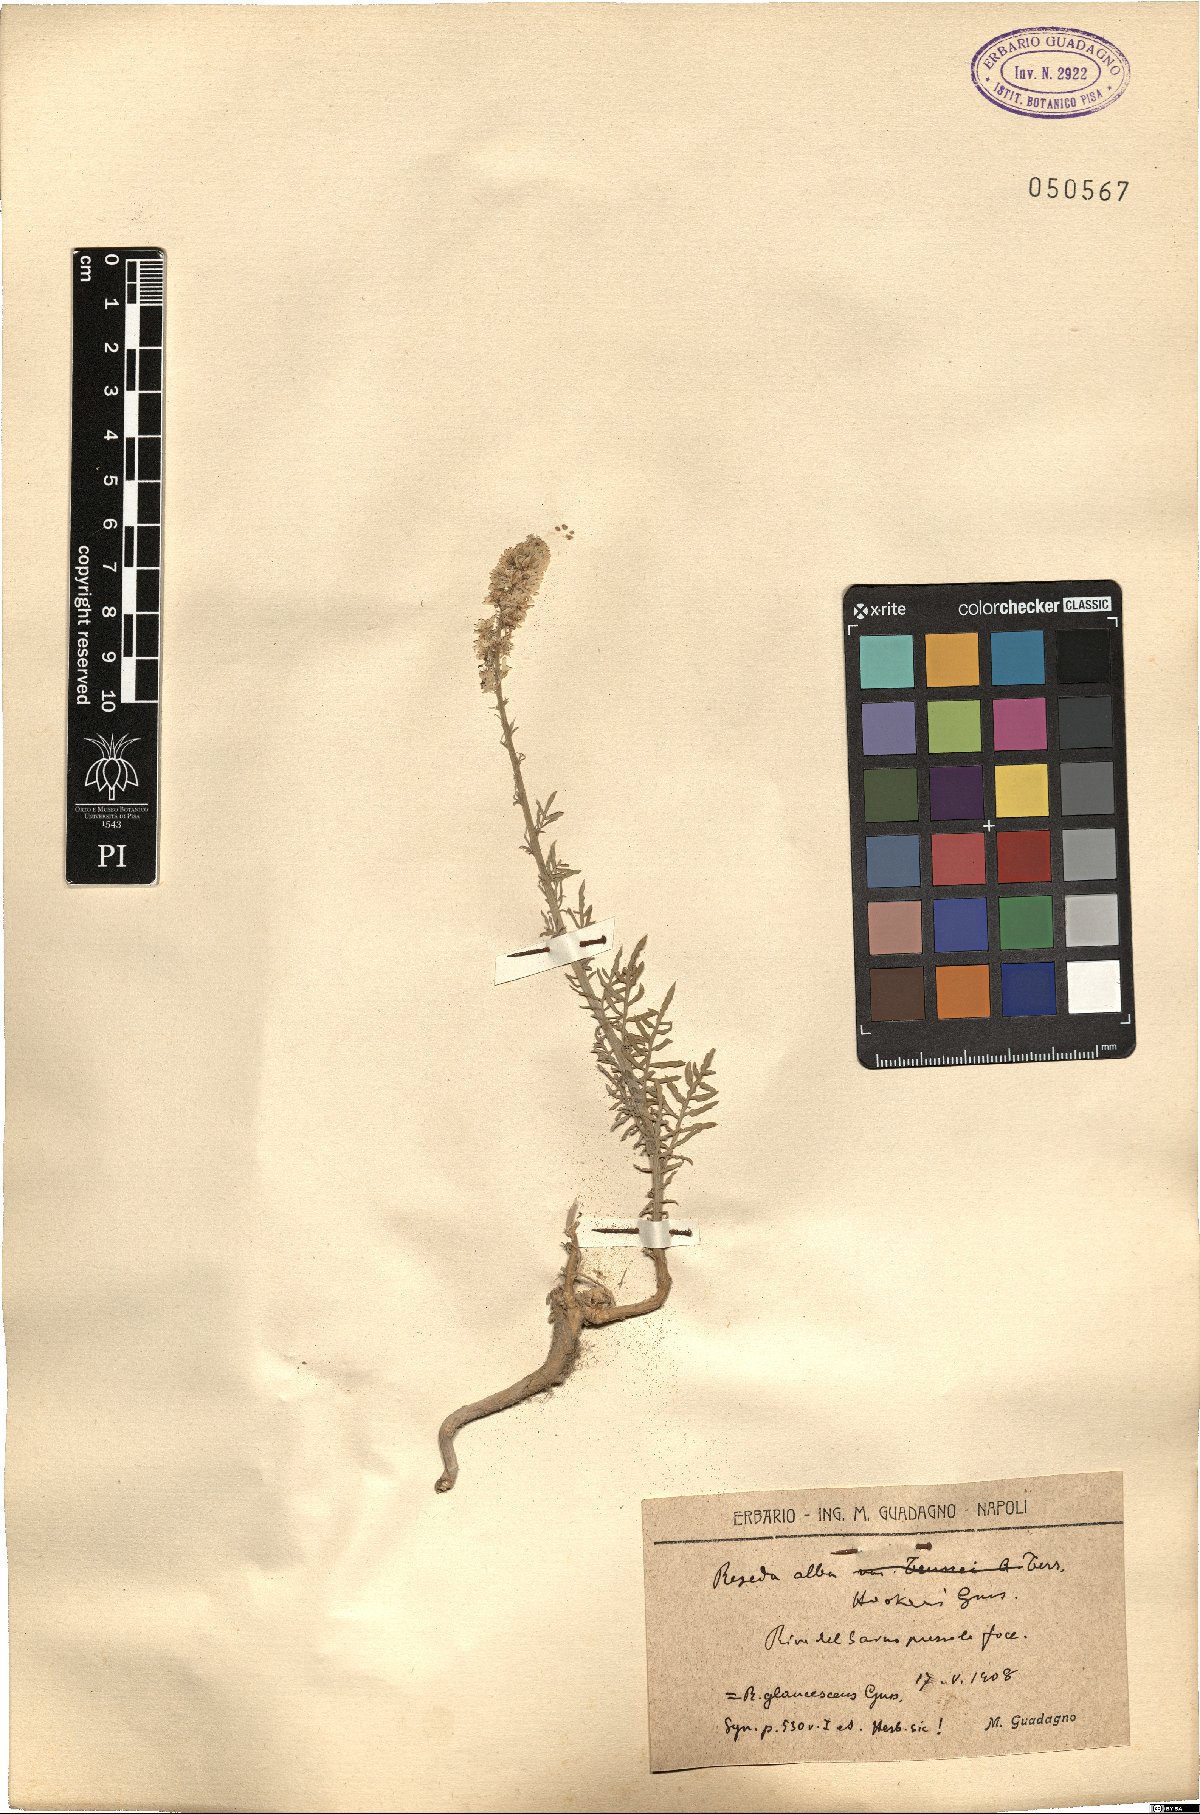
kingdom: Plantae
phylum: Tracheophyta
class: Magnoliopsida
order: Brassicales
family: Resedaceae
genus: Reseda
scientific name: Reseda alba
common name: White mignonette
